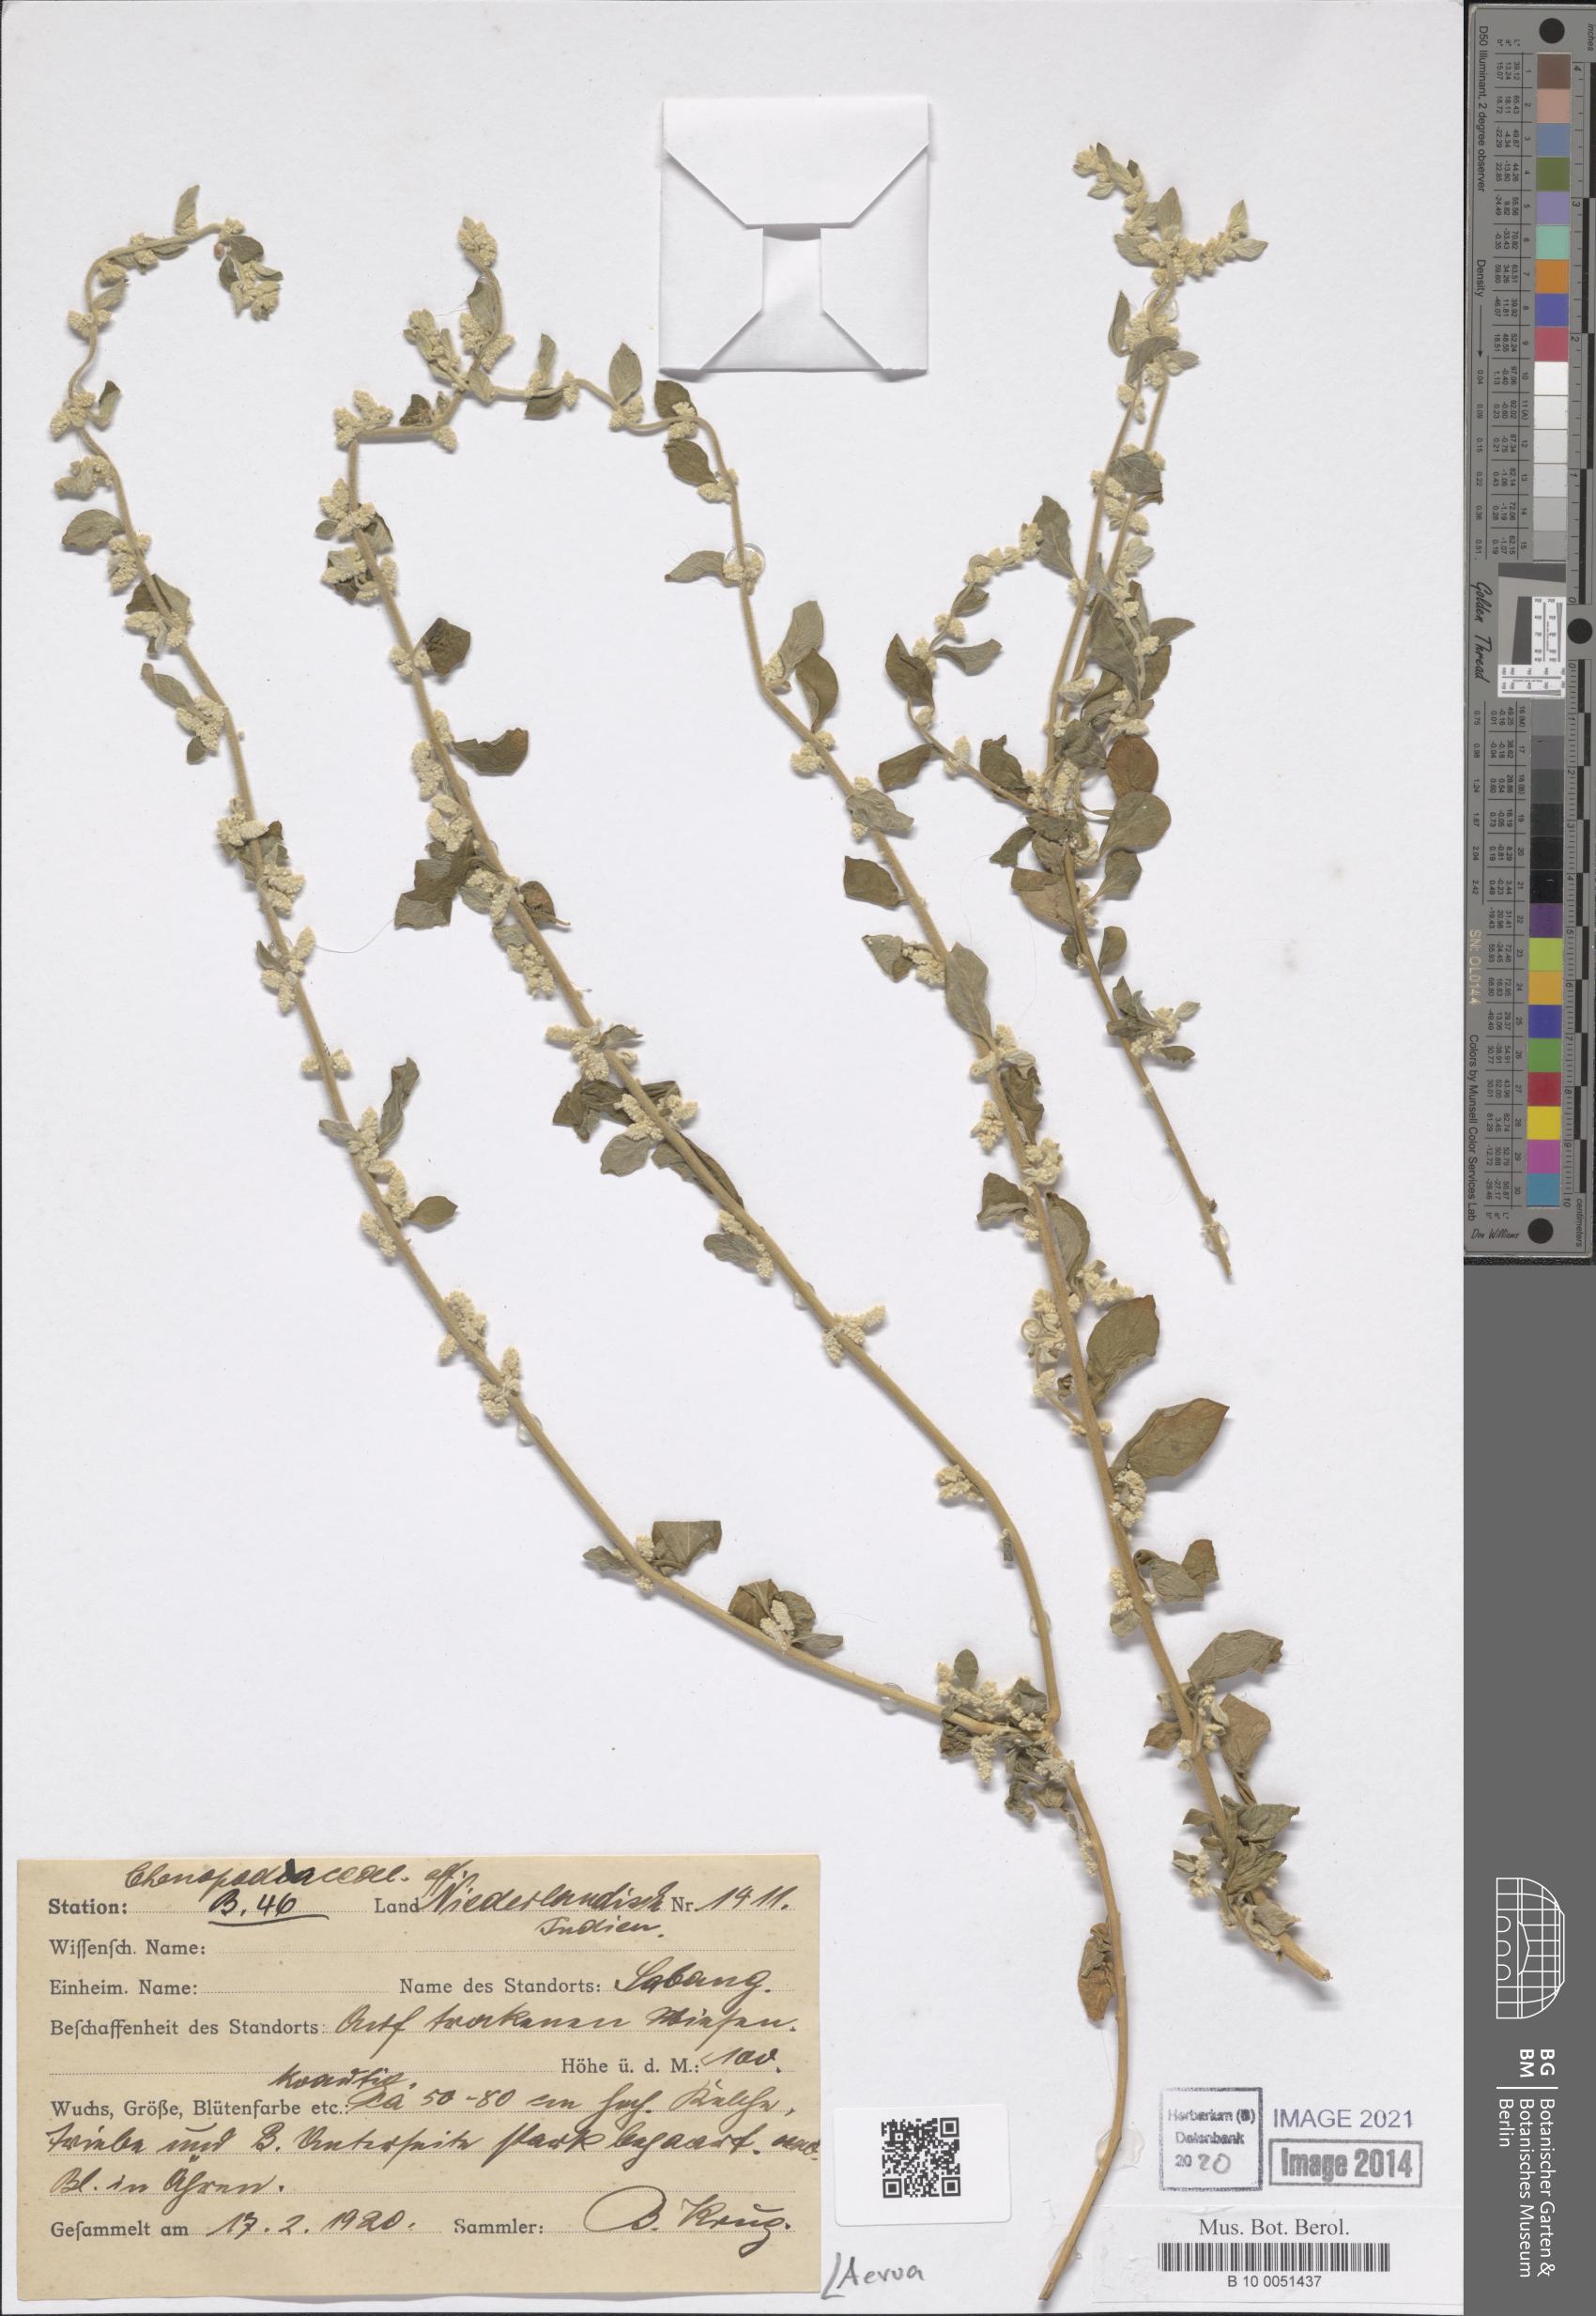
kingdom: Plantae
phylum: Tracheophyta
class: Magnoliopsida
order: Caryophyllales
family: Amaranthaceae
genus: Aerva
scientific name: Aerva
